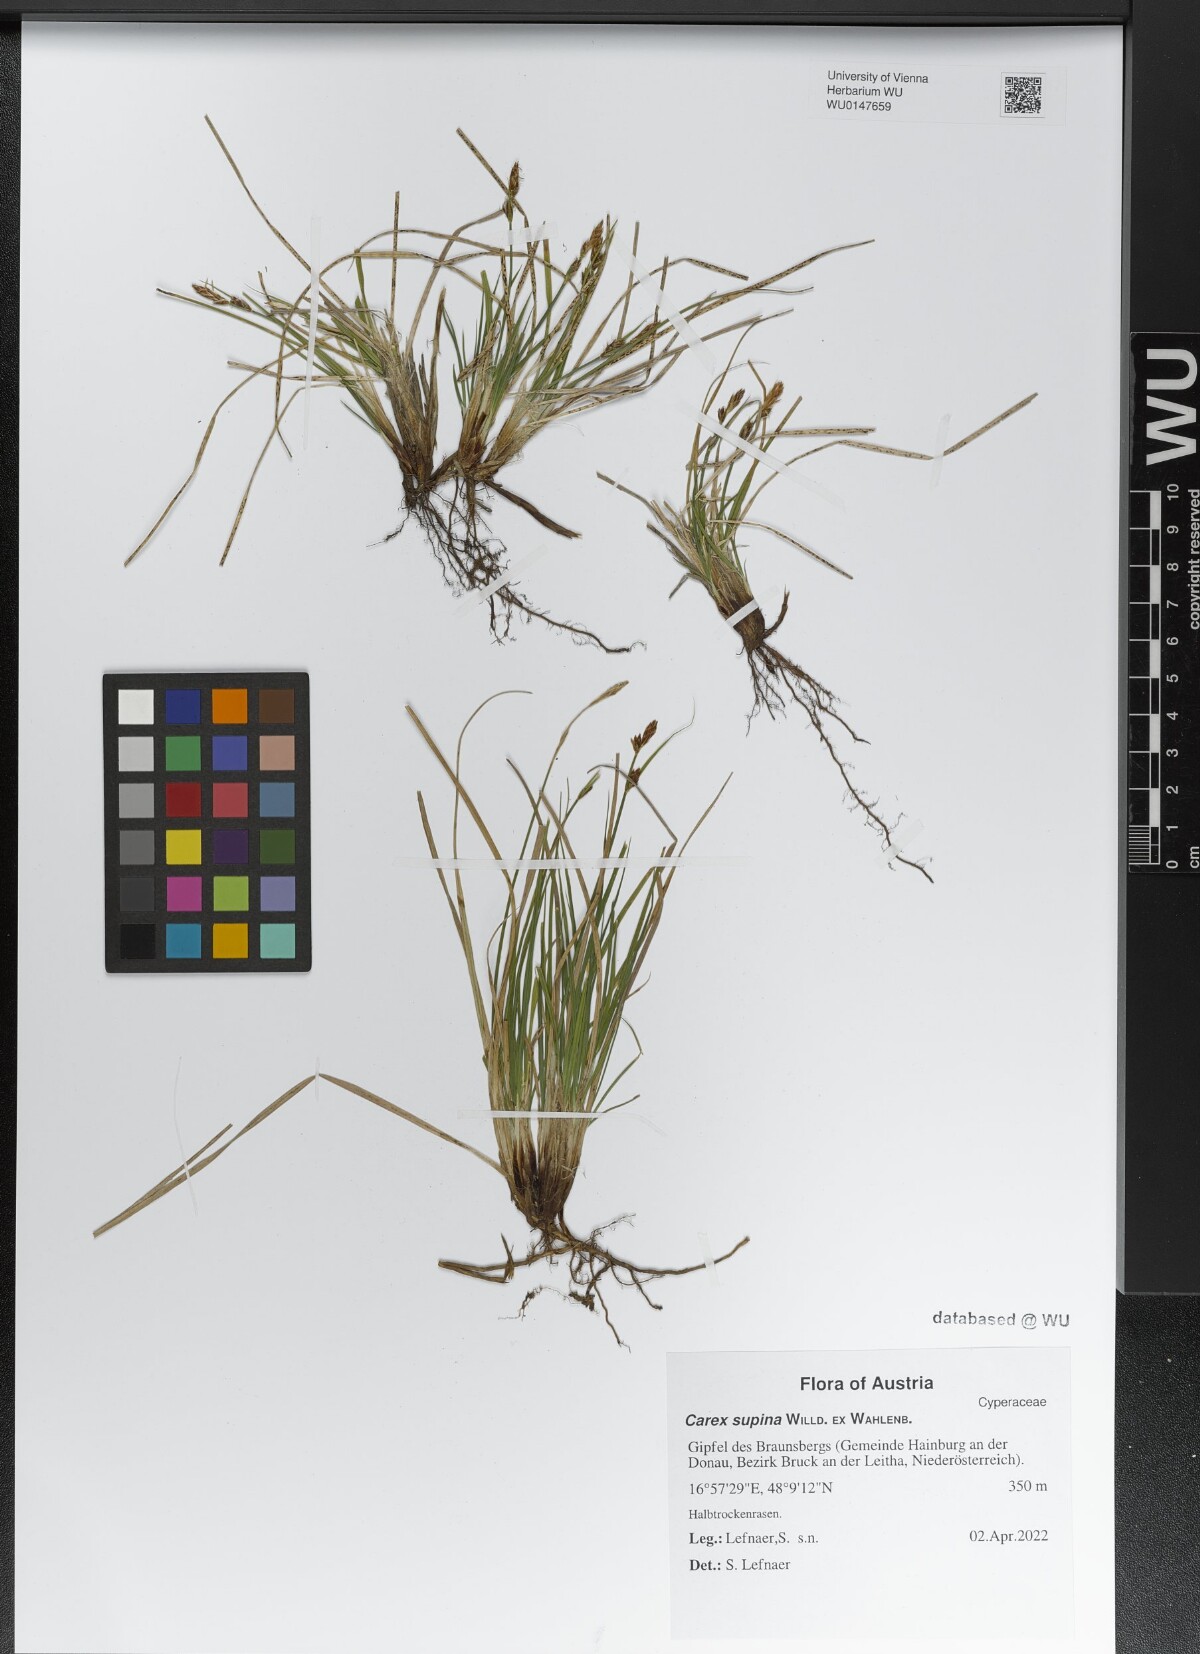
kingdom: Plantae
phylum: Tracheophyta
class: Liliopsida
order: Poales
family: Cyperaceae
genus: Carex
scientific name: Carex supina
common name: Lying-back sedge
